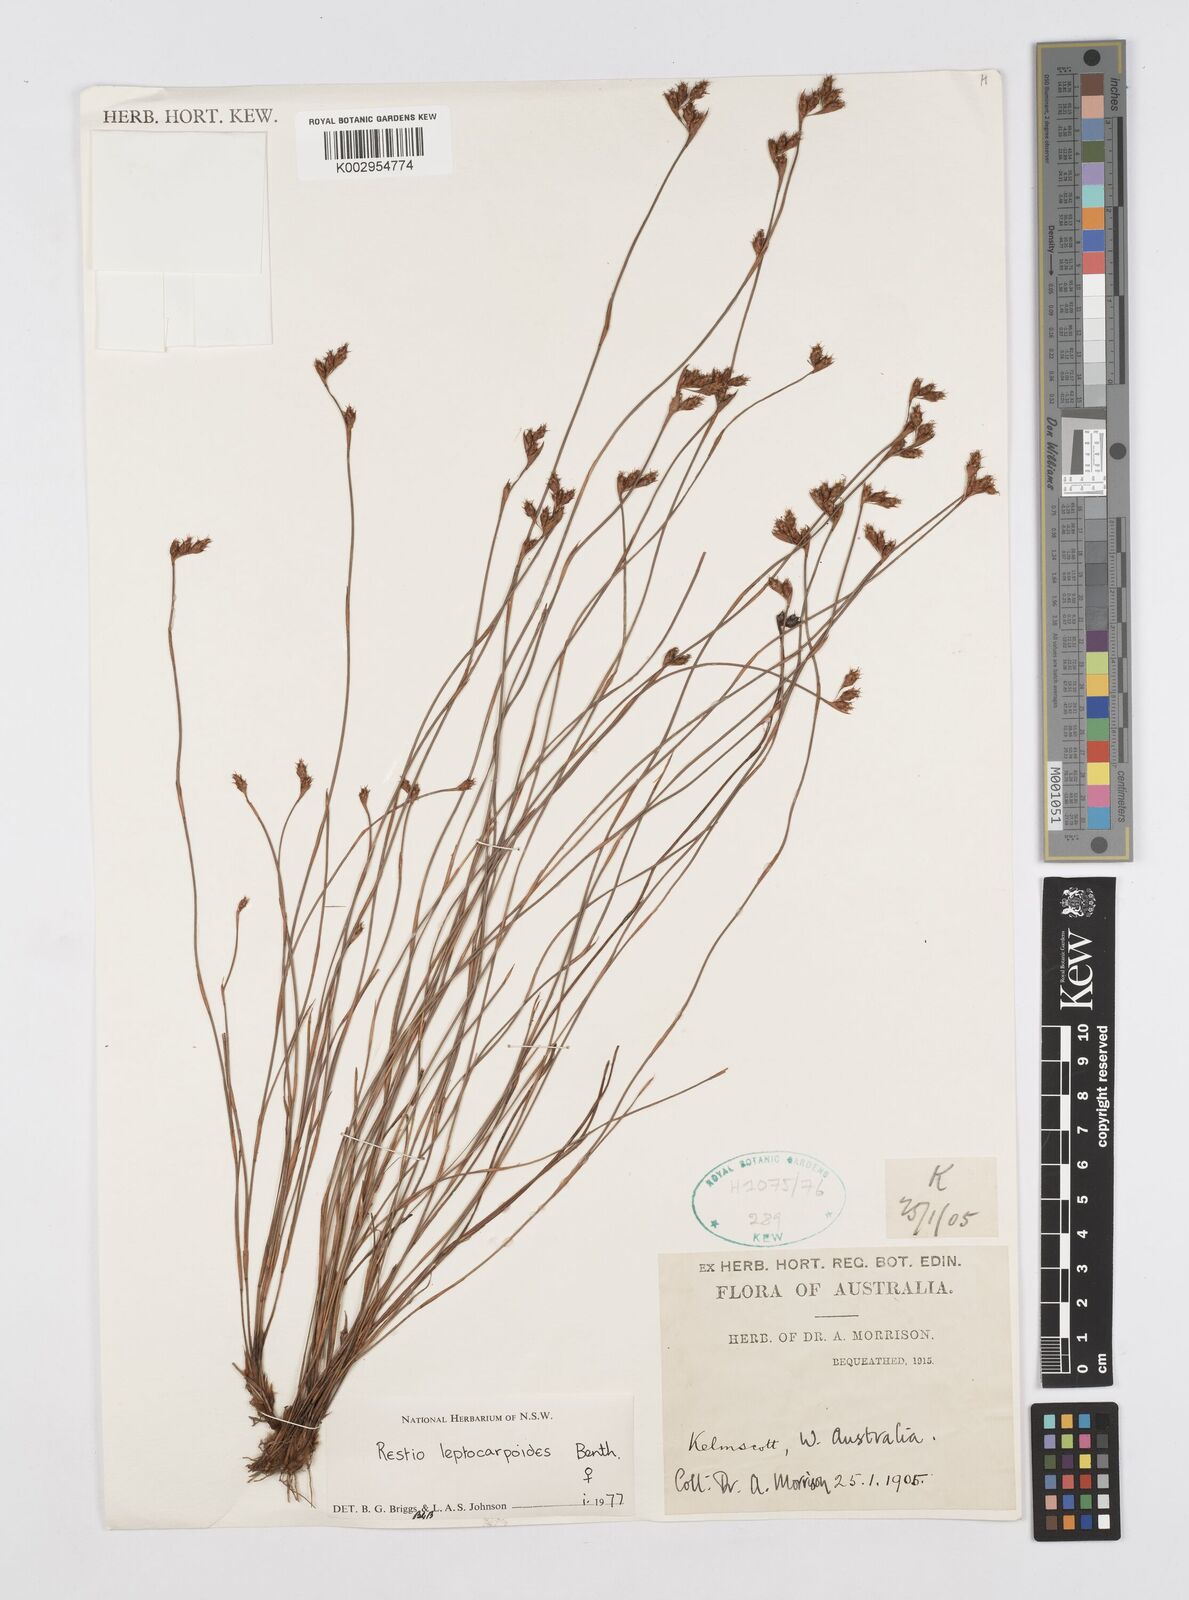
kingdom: Plantae
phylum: Tracheophyta
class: Liliopsida
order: Poales
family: Restionaceae
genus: Cytogonidium
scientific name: Cytogonidium leptocarpoides
